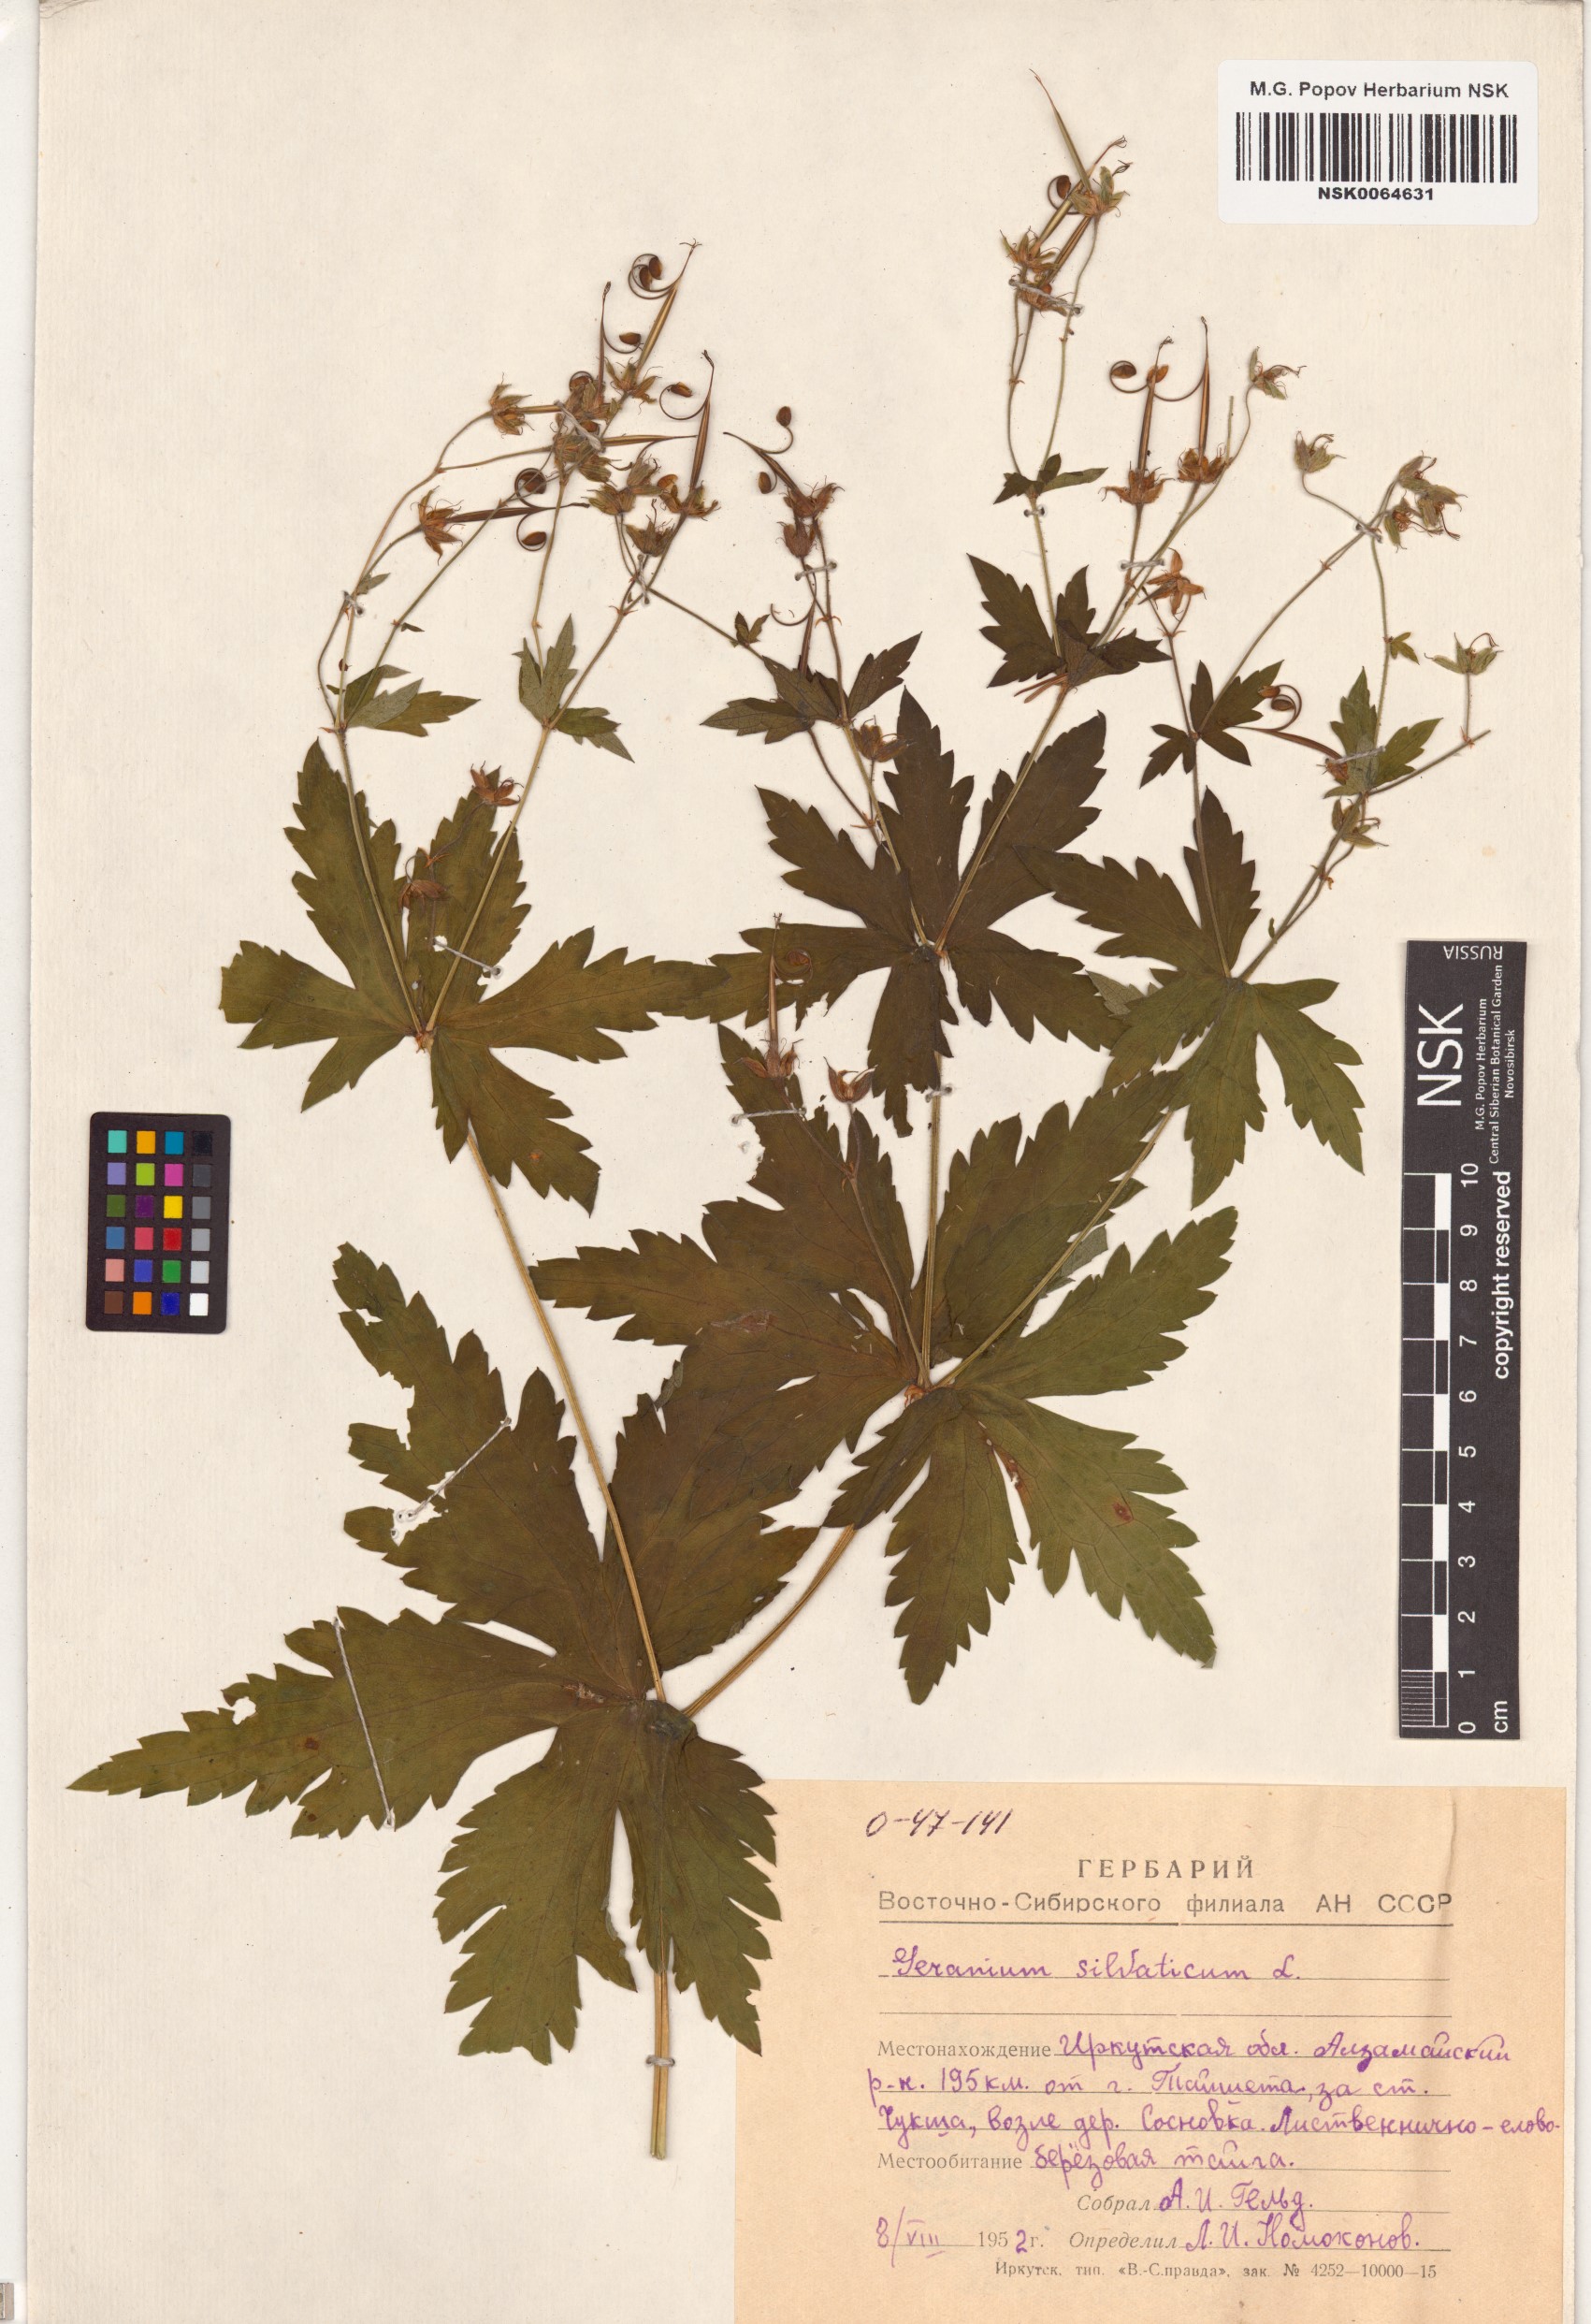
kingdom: Plantae
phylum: Tracheophyta
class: Magnoliopsida
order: Geraniales
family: Geraniaceae
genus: Geranium
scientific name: Geranium sylvaticum
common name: Wood crane's-bill
